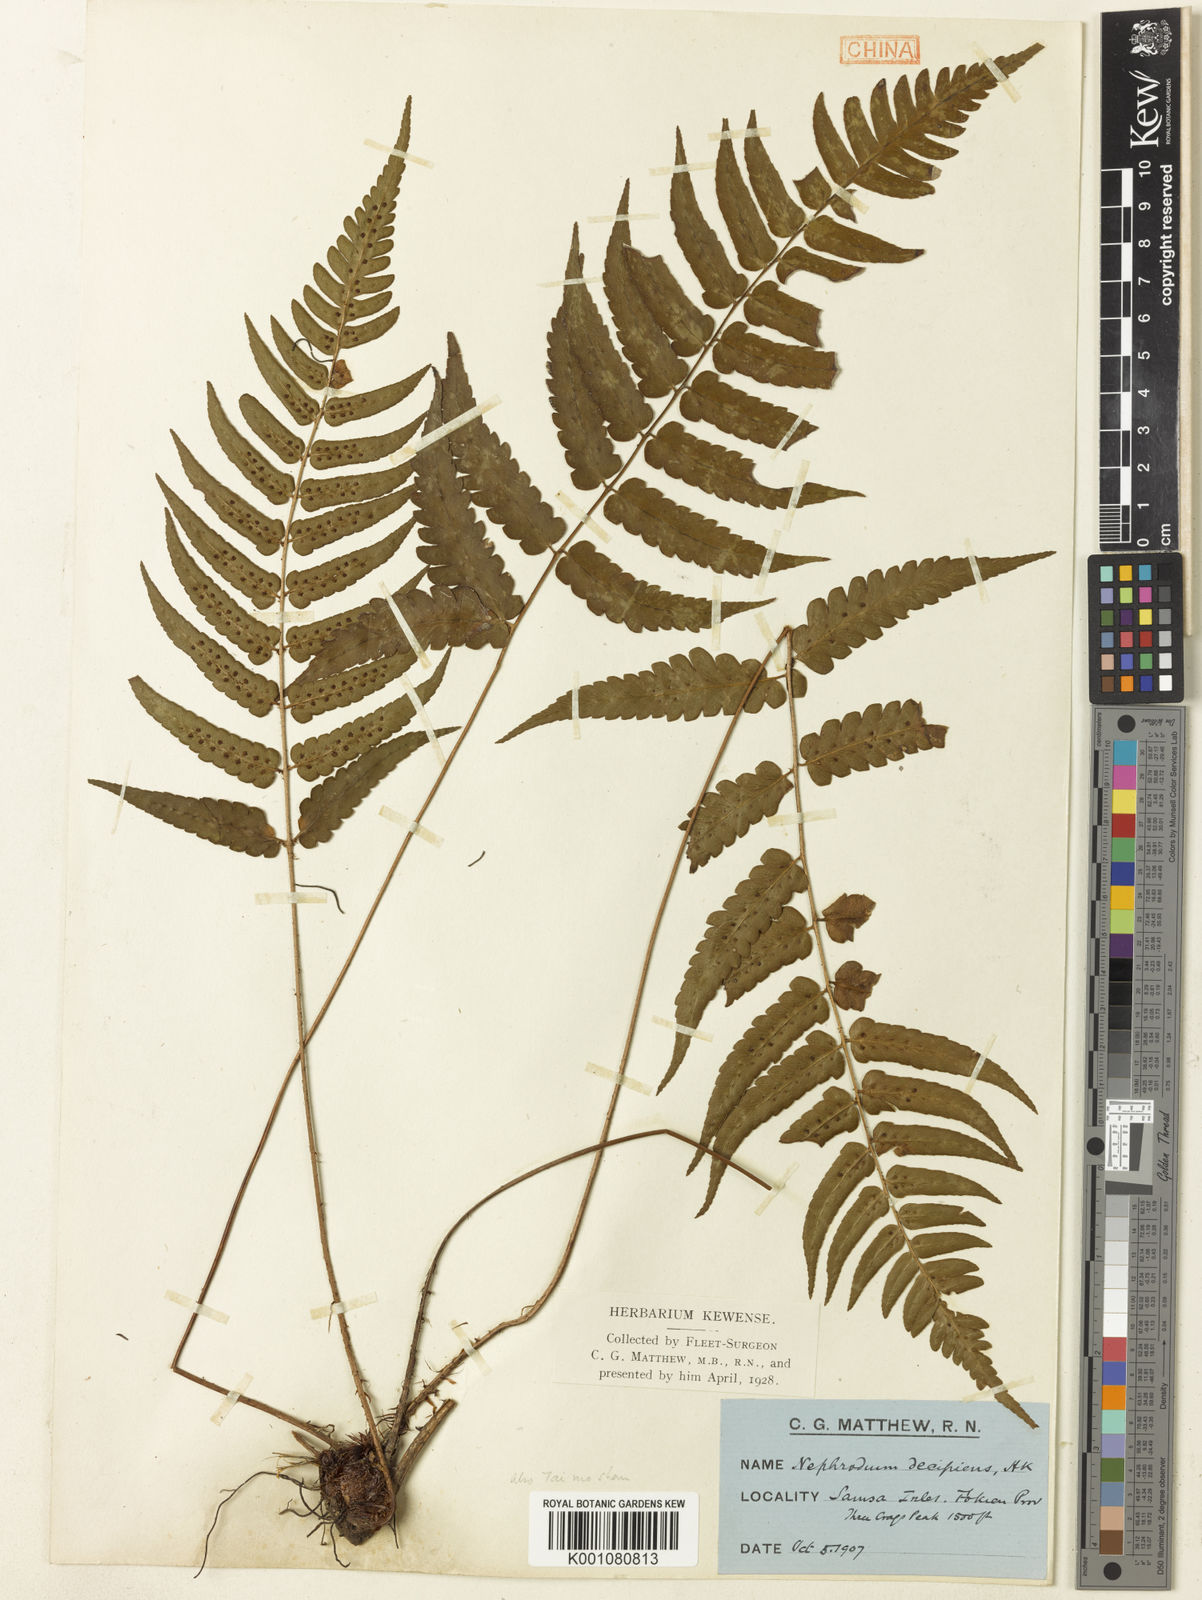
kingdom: Plantae
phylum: Tracheophyta
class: Polypodiopsida
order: Polypodiales
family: Dryopteridaceae
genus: Dryopteris
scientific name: Dryopteris decipiens
